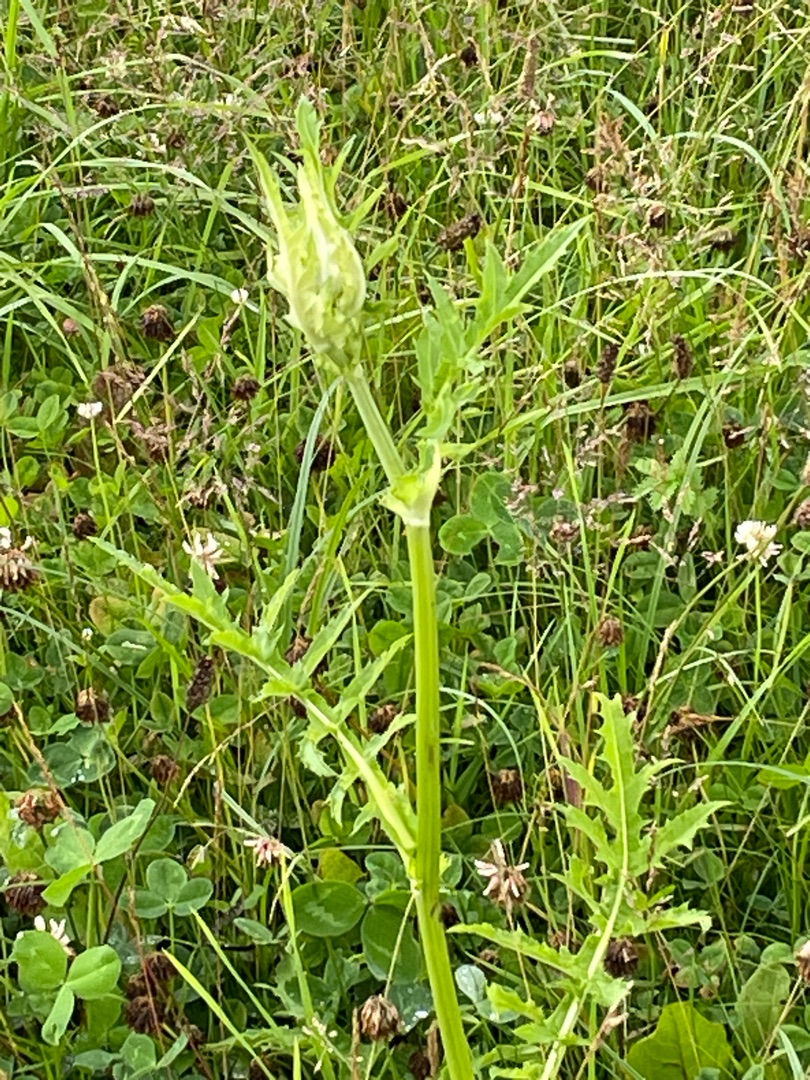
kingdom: Plantae
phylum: Tracheophyta
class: Magnoliopsida
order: Asterales
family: Asteraceae
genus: Cirsium
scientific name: Cirsium oleraceum
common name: Kål-tidsel
